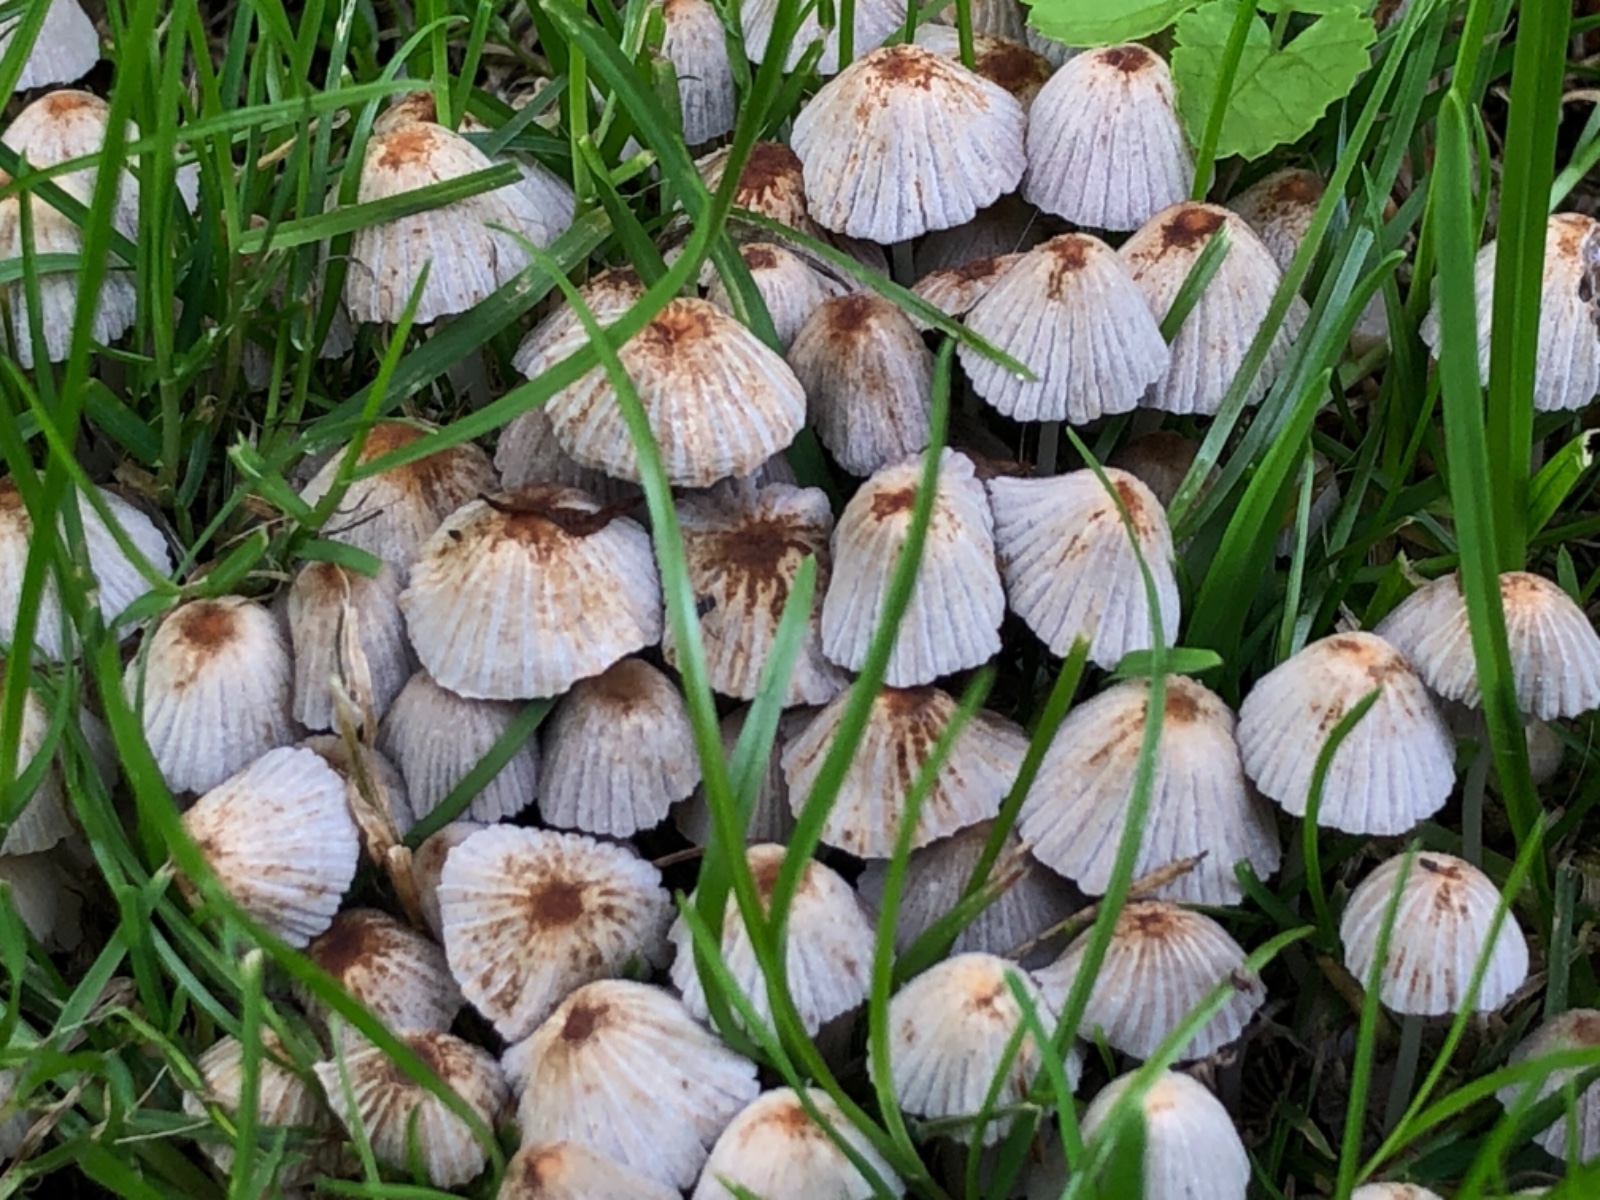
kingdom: Fungi
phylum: Basidiomycota
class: Agaricomycetes
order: Agaricales
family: Psathyrellaceae
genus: Coprinellus
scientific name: Coprinellus disseminatus
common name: bredsået blækhat
